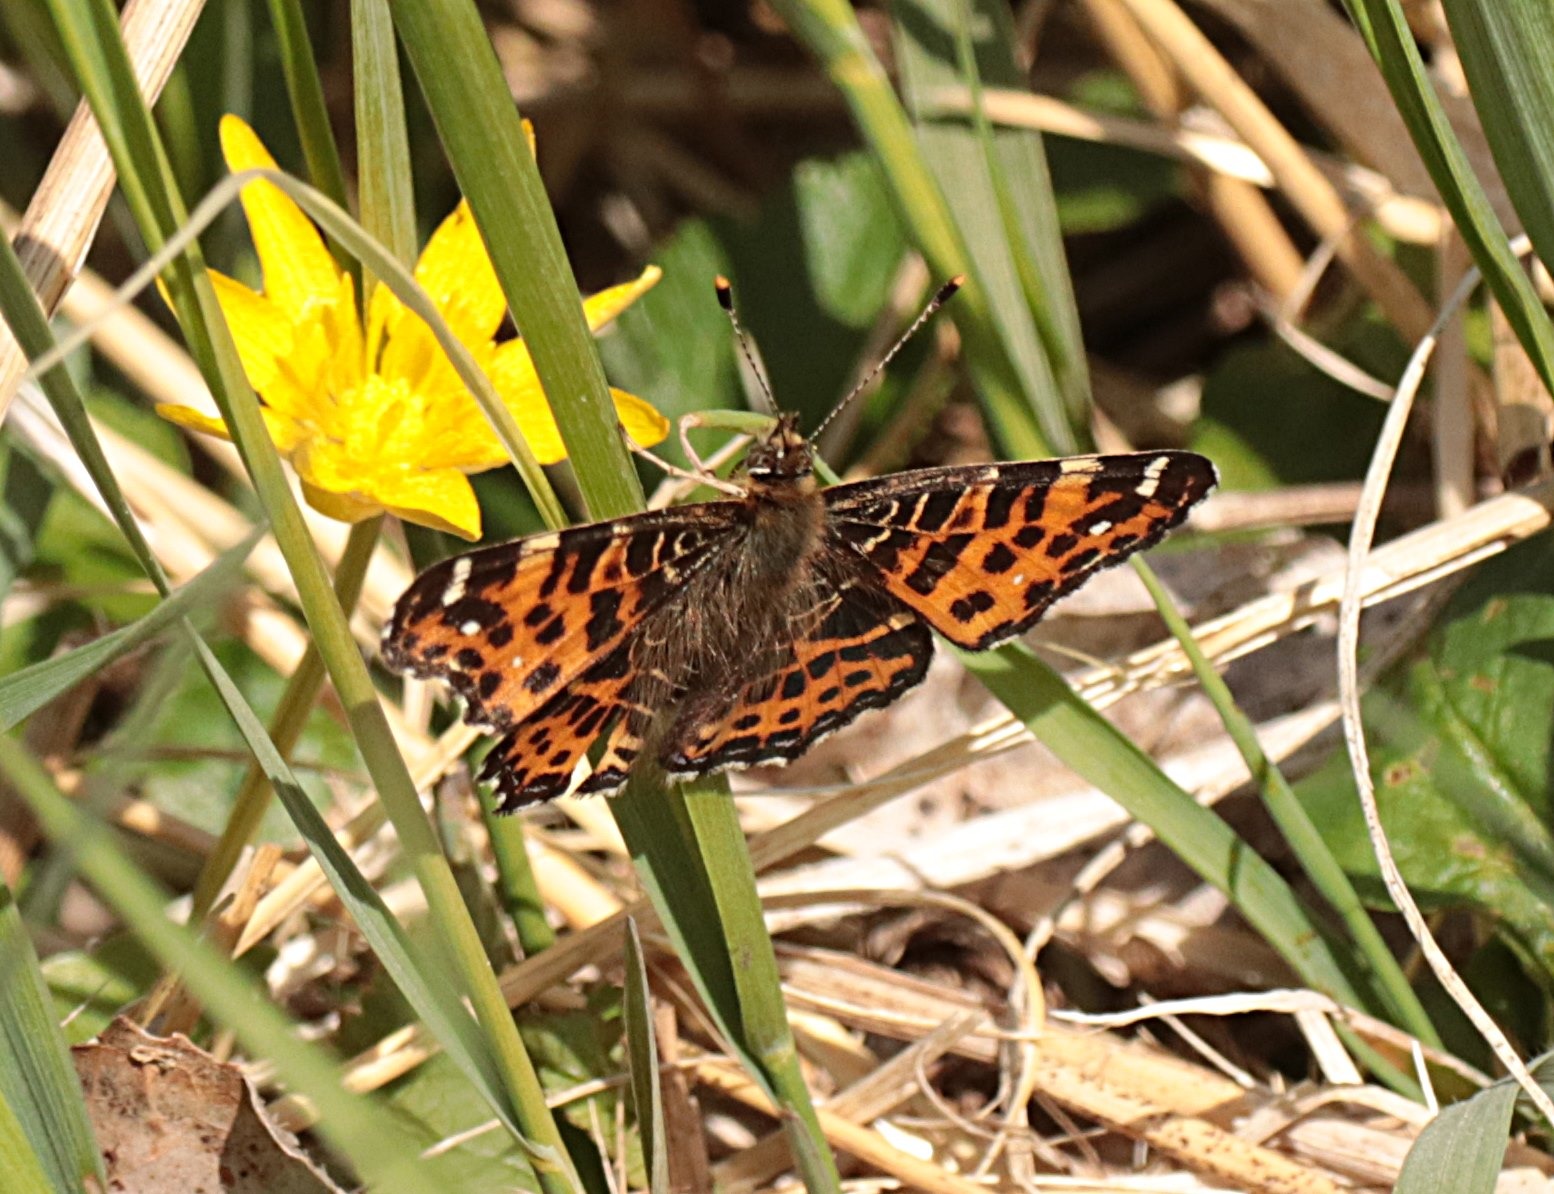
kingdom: Animalia
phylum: Arthropoda
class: Insecta
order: Lepidoptera
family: Nymphalidae
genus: Araschnia
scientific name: Araschnia levana
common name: Nældesommerfugl
